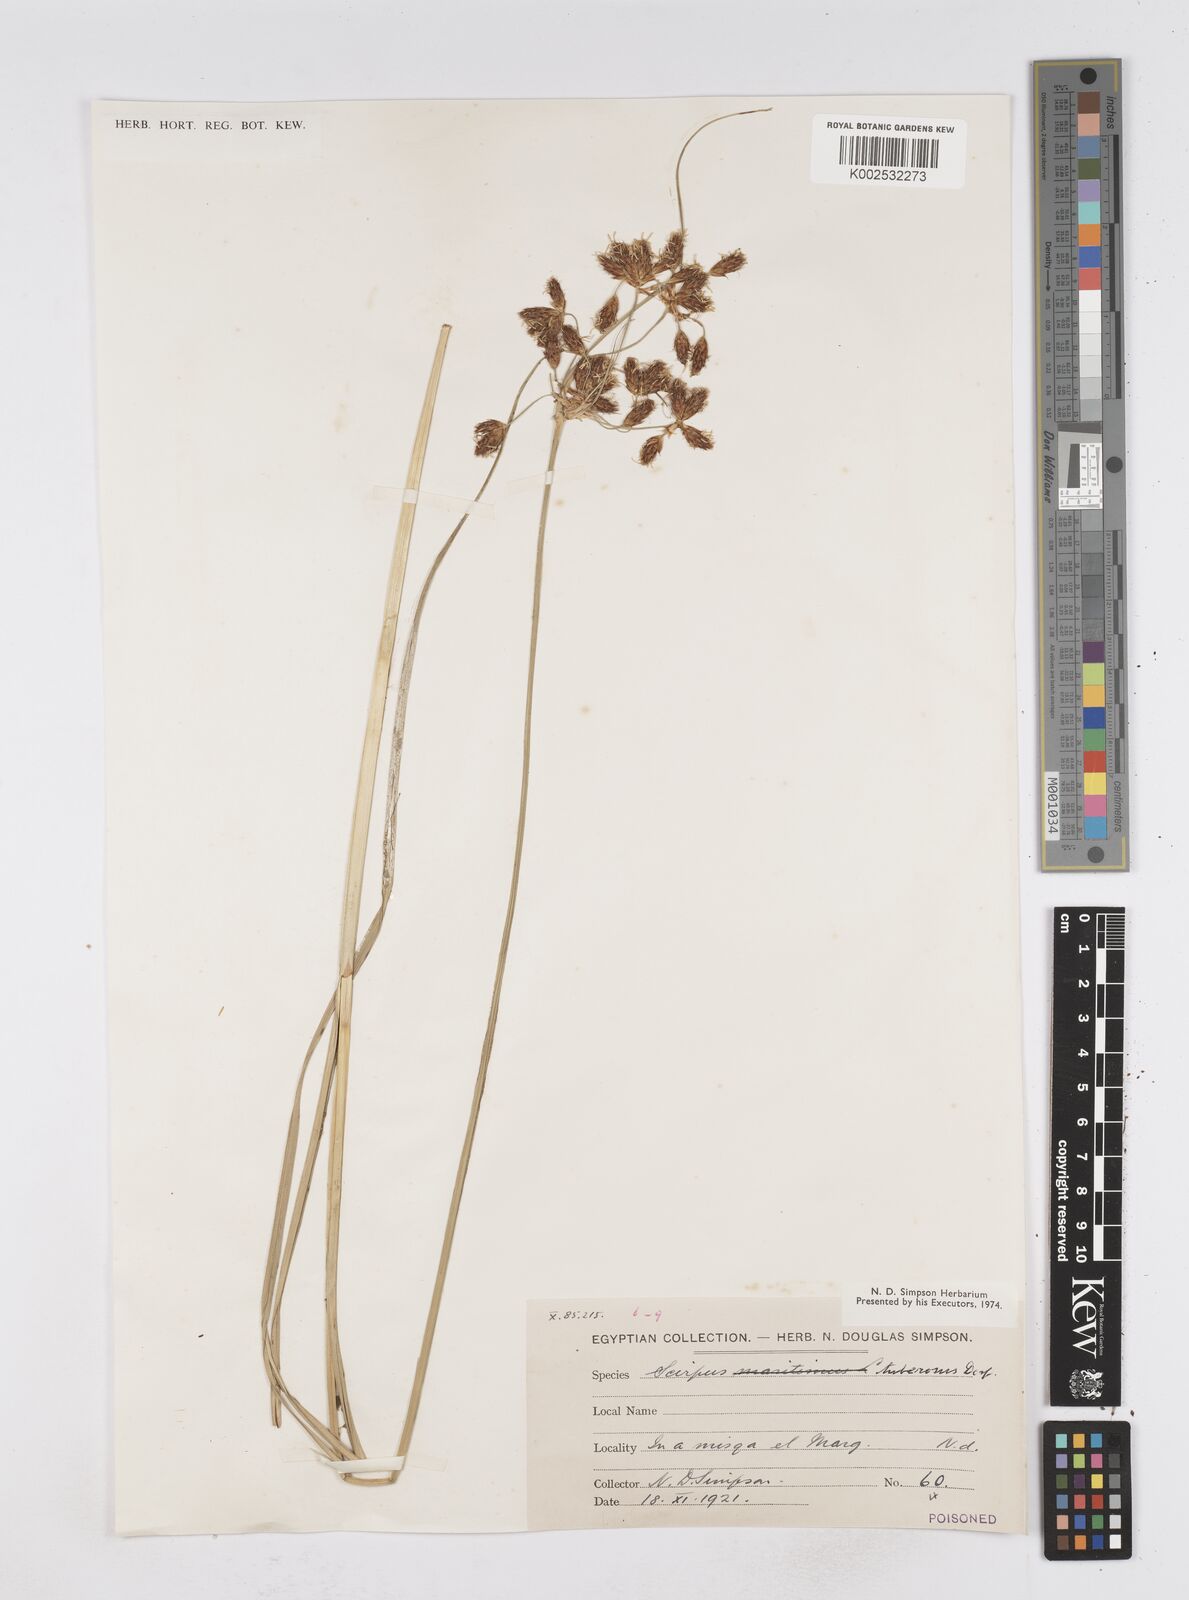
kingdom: Plantae
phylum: Tracheophyta
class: Liliopsida
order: Poales
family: Cyperaceae
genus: Bolboschoenus
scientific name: Bolboschoenus maritimus
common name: Sea club-rush
